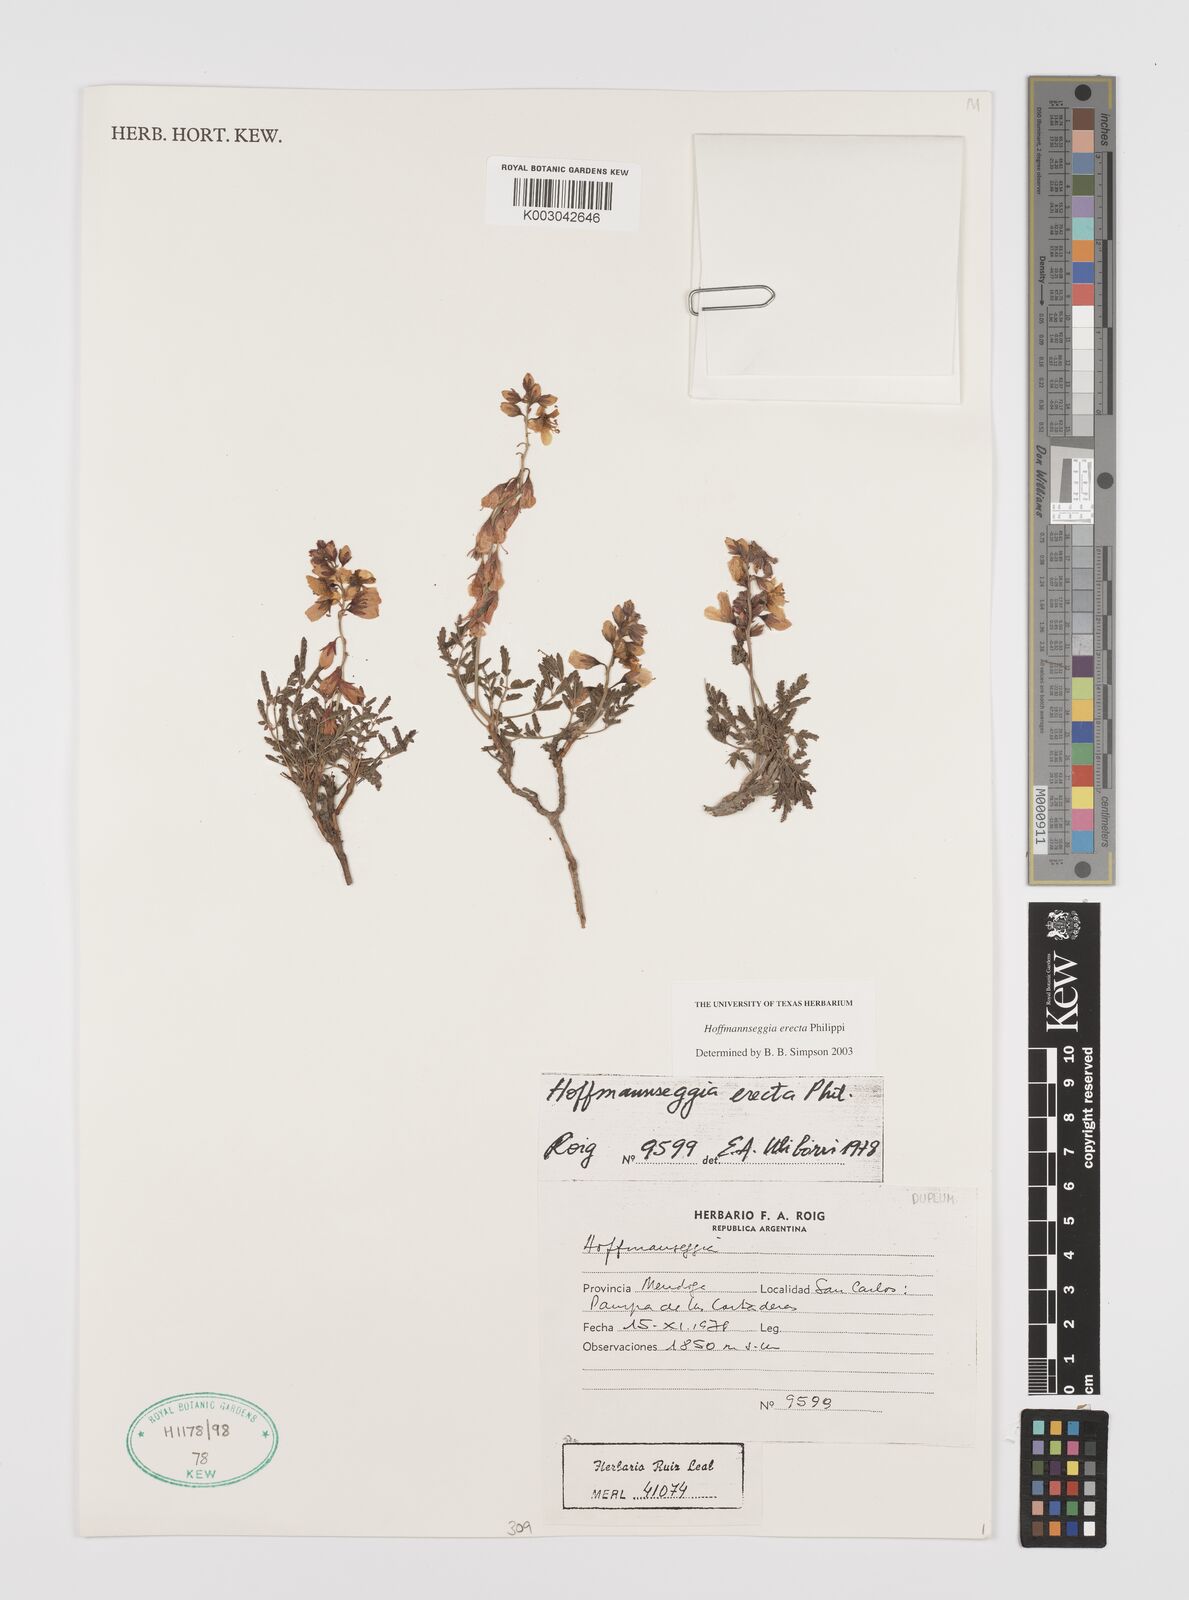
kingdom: Plantae
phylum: Tracheophyta
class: Magnoliopsida
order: Fabales
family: Fabaceae
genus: Hoffmannseggia
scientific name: Hoffmannseggia erecta
